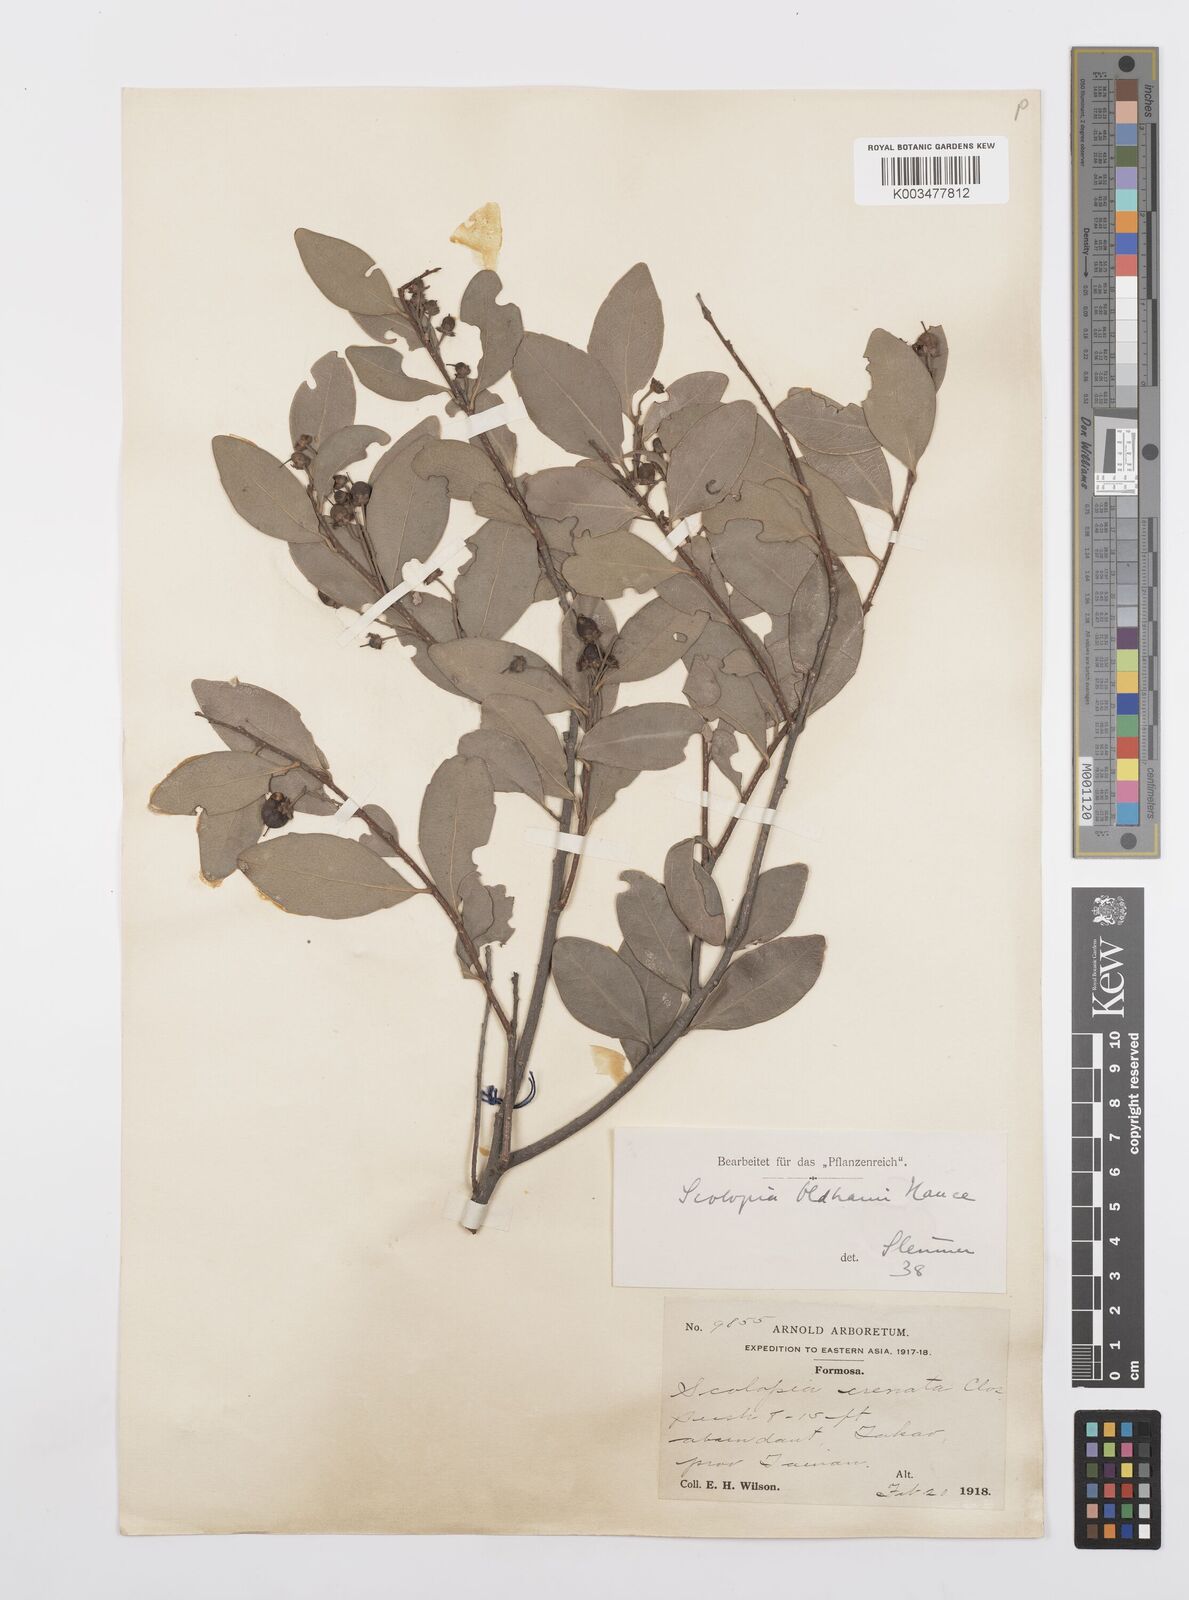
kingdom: Plantae
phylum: Tracheophyta
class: Magnoliopsida
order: Malpighiales
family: Salicaceae
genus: Scolopia
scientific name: Scolopia oldhamii
